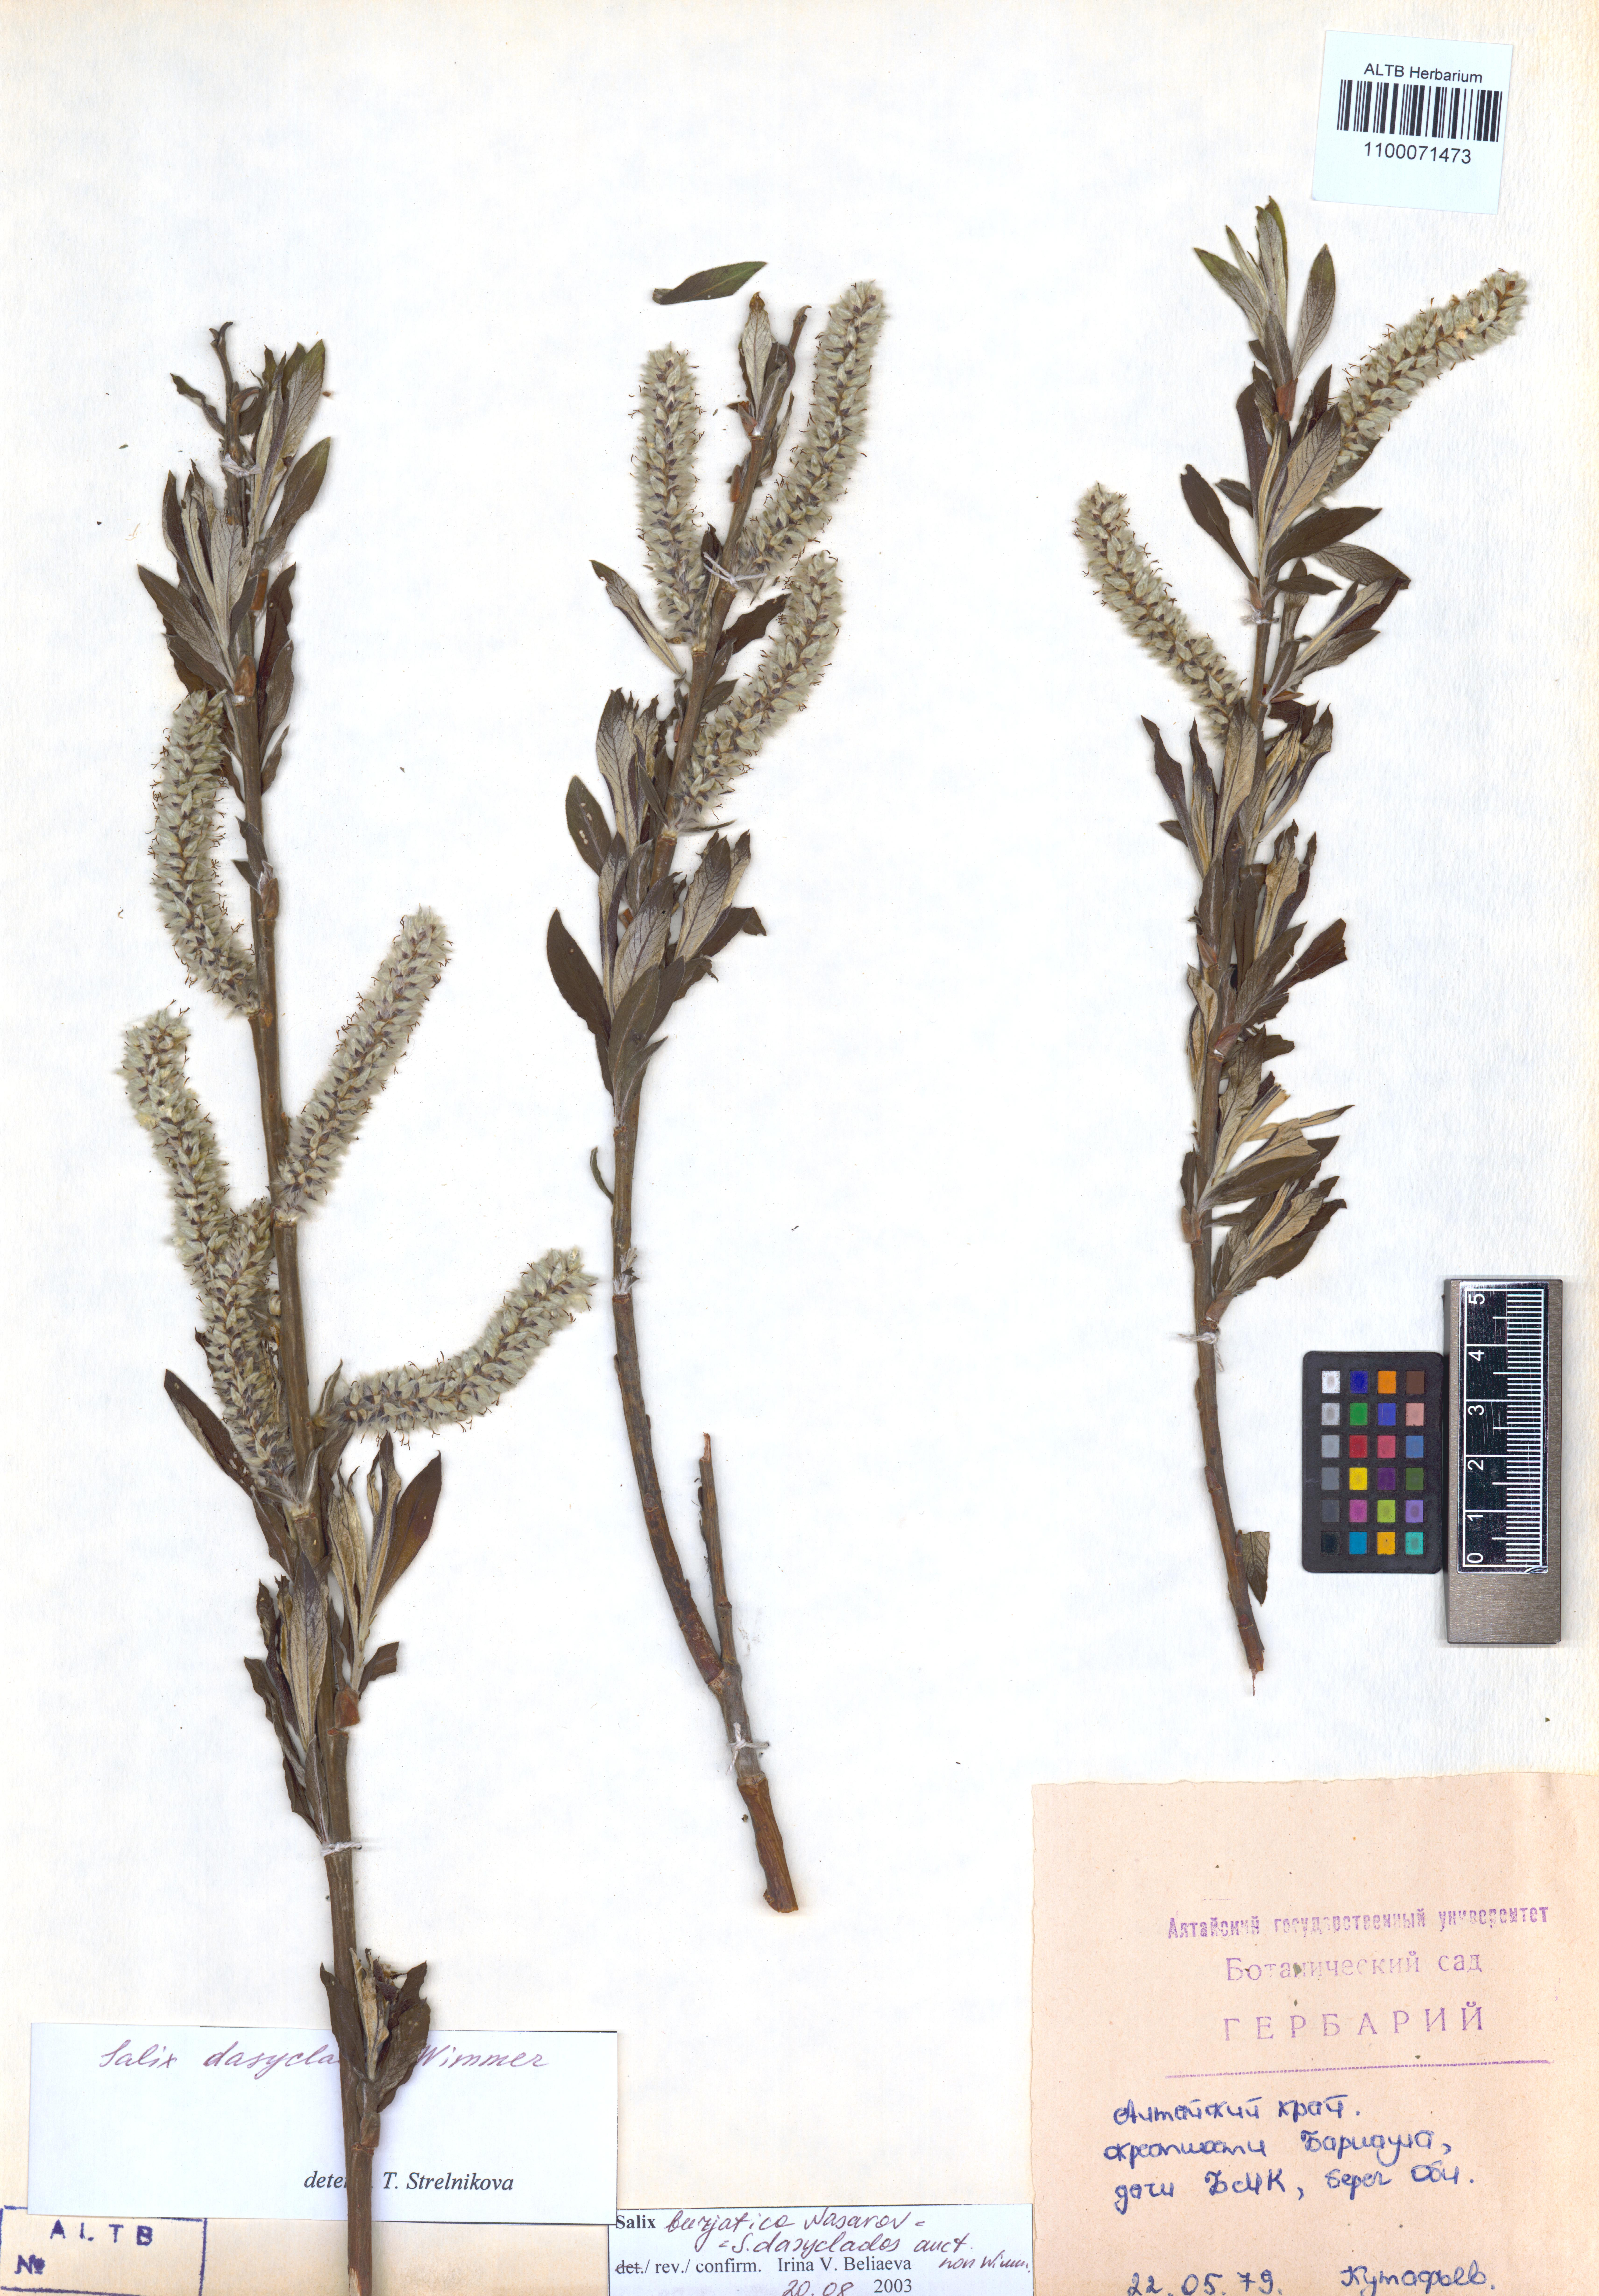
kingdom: Plantae
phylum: Tracheophyta
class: Magnoliopsida
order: Malpighiales
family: Salicaceae
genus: Salix
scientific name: Salix gmelinii
